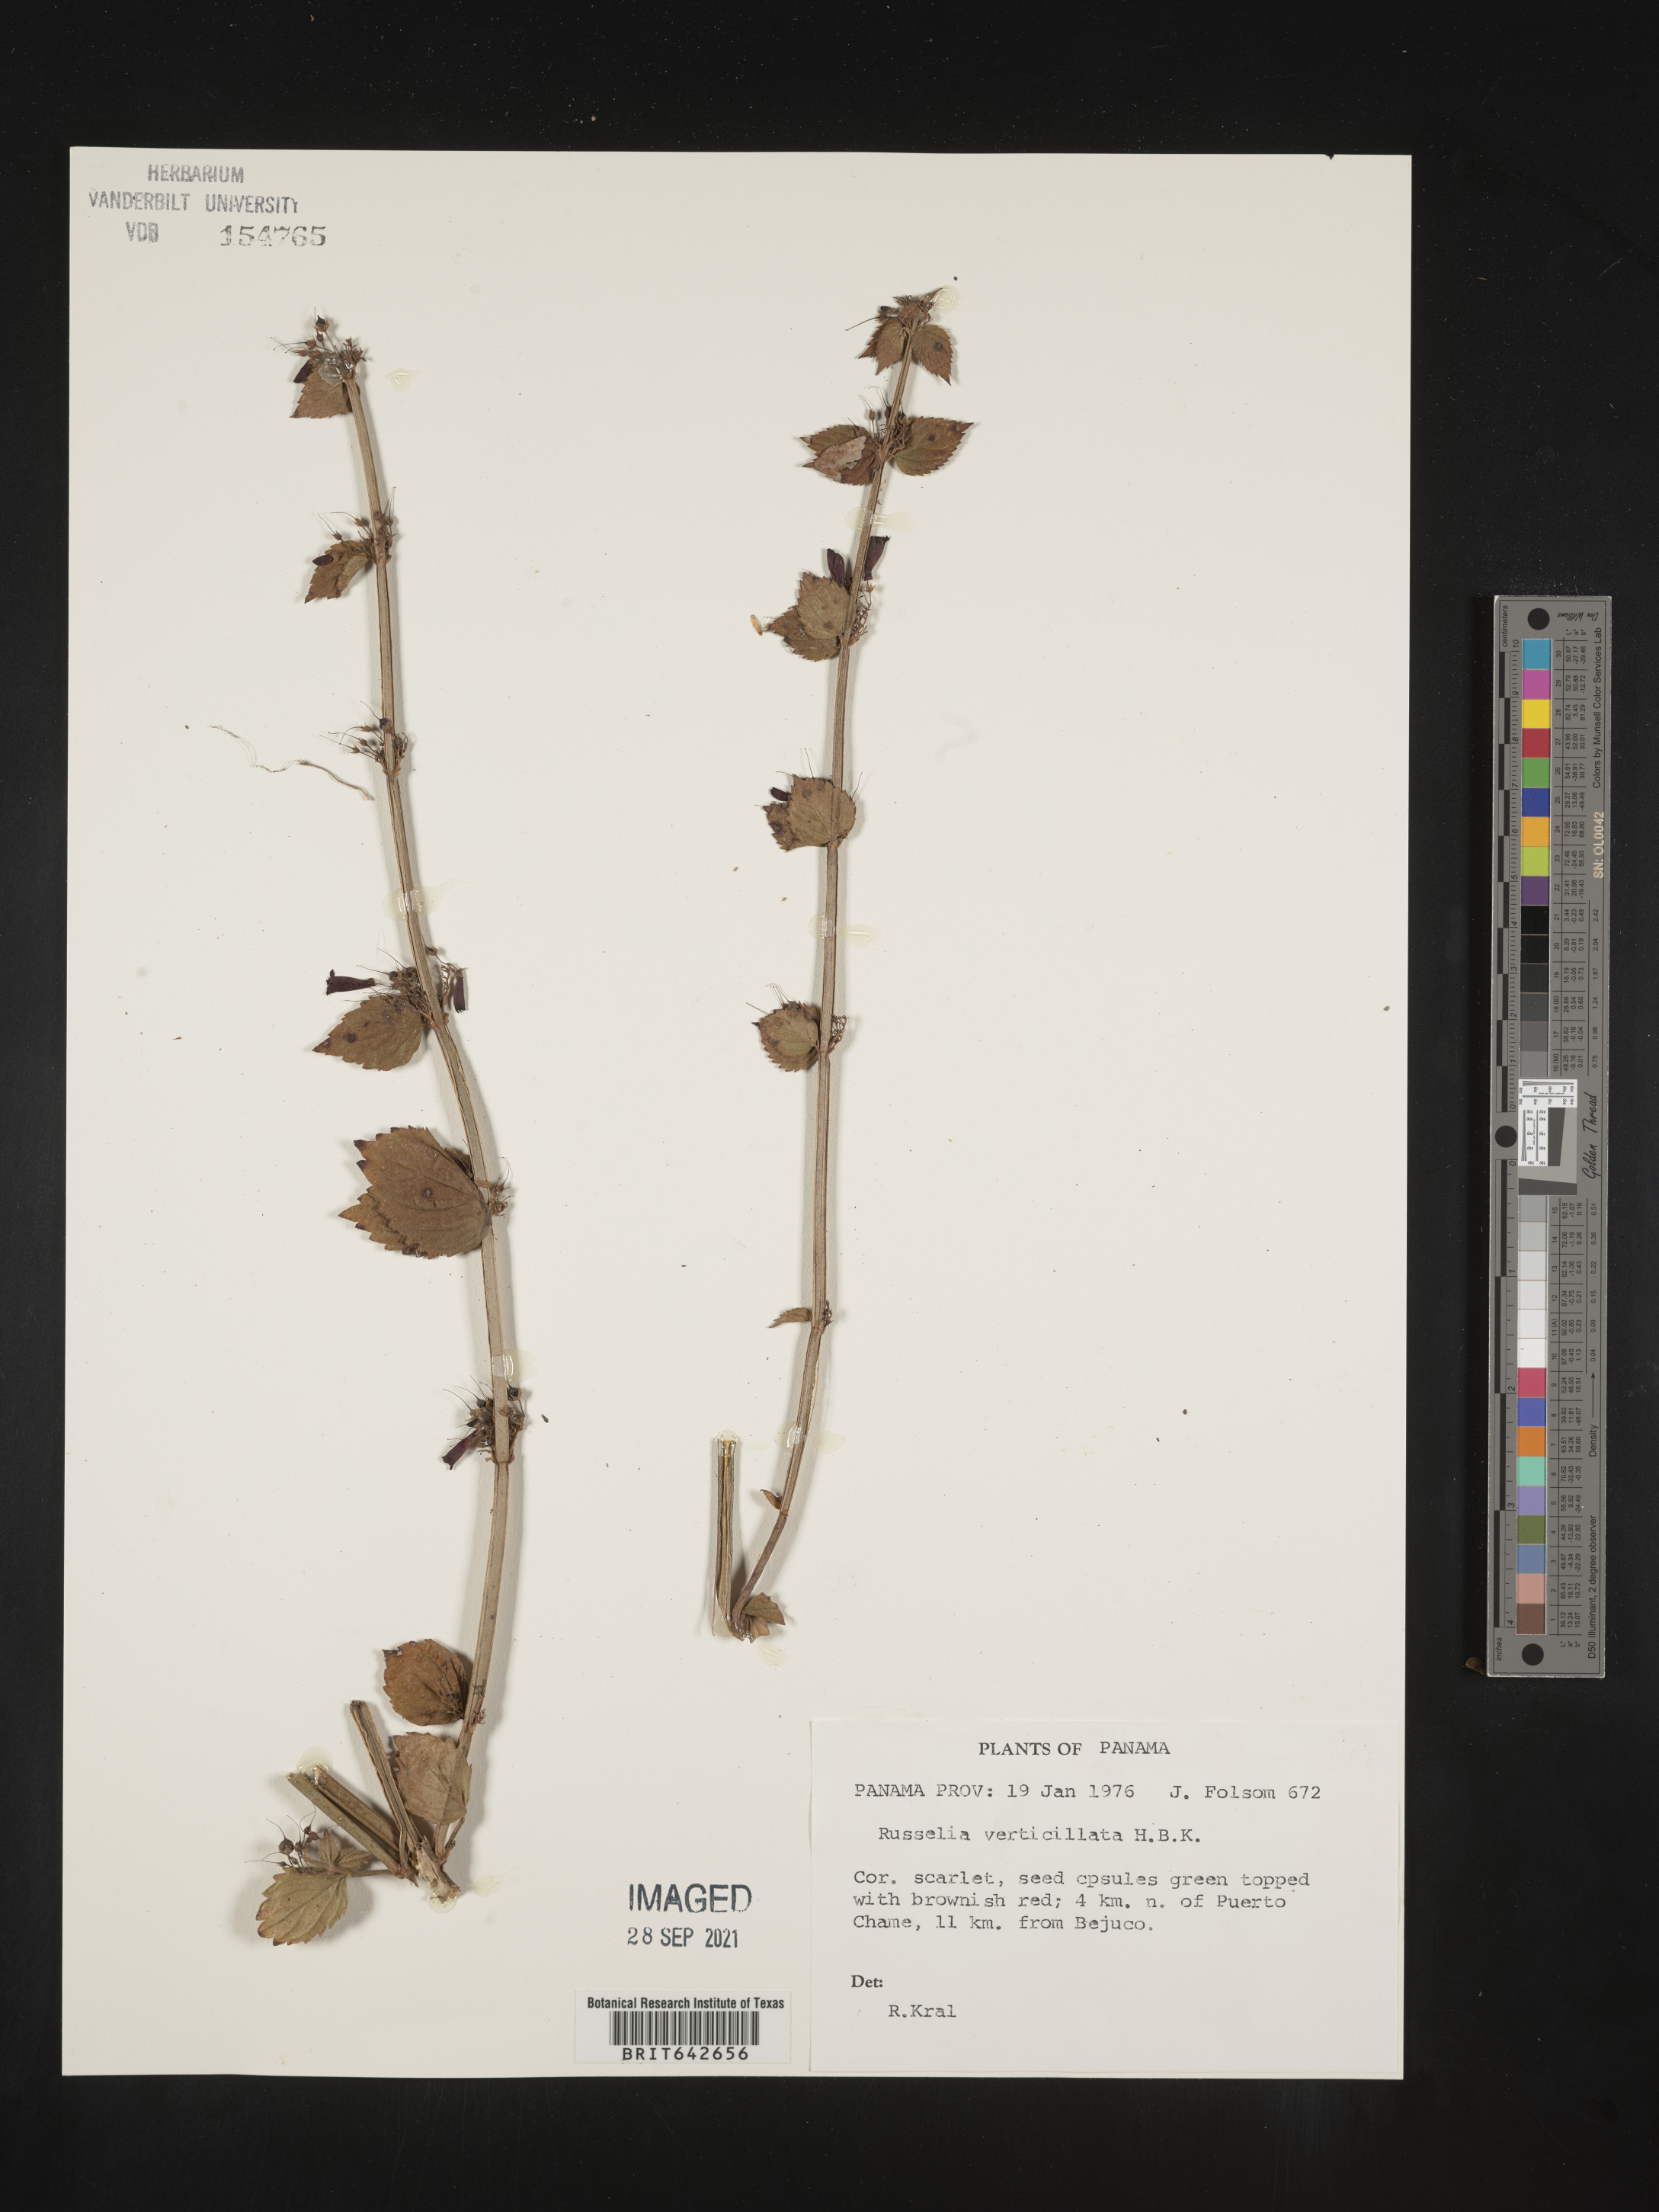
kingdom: Plantae
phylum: Tracheophyta
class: Magnoliopsida
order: Lamiales
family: Plantaginaceae
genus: Russelia
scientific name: Russelia
